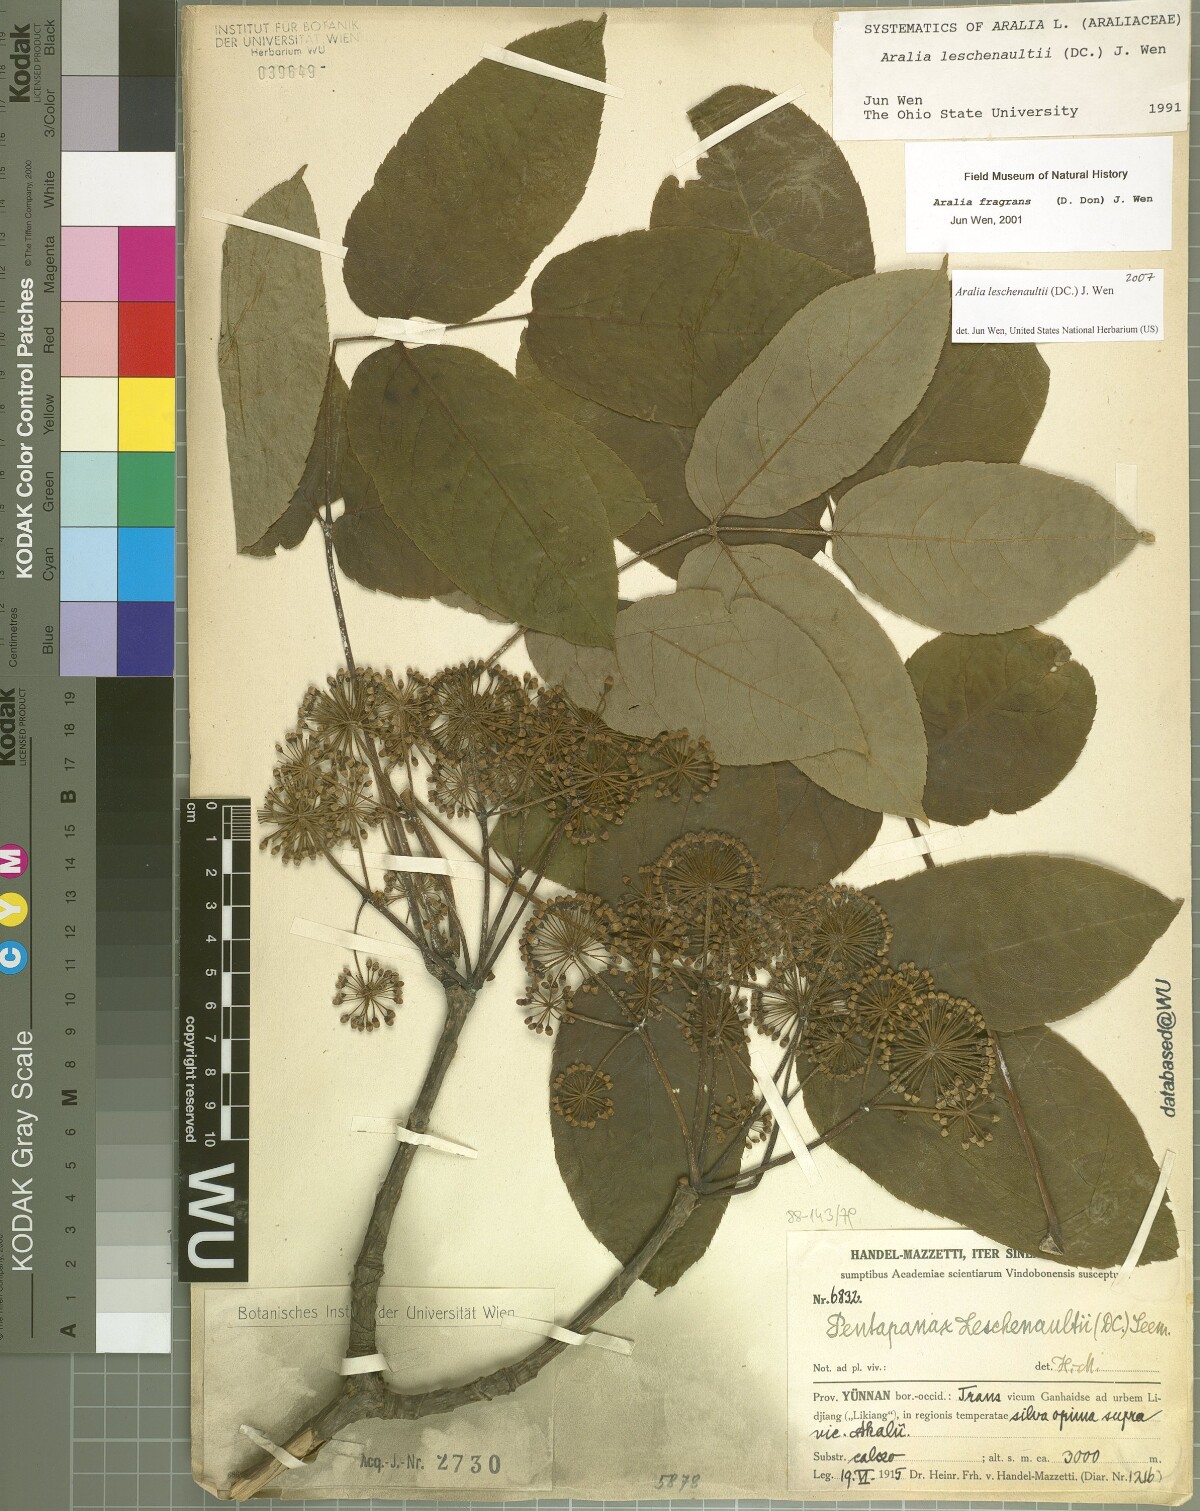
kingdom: Plantae
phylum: Tracheophyta
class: Magnoliopsida
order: Apiales
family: Araliaceae
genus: Aralia
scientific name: Aralia leschenaultii
